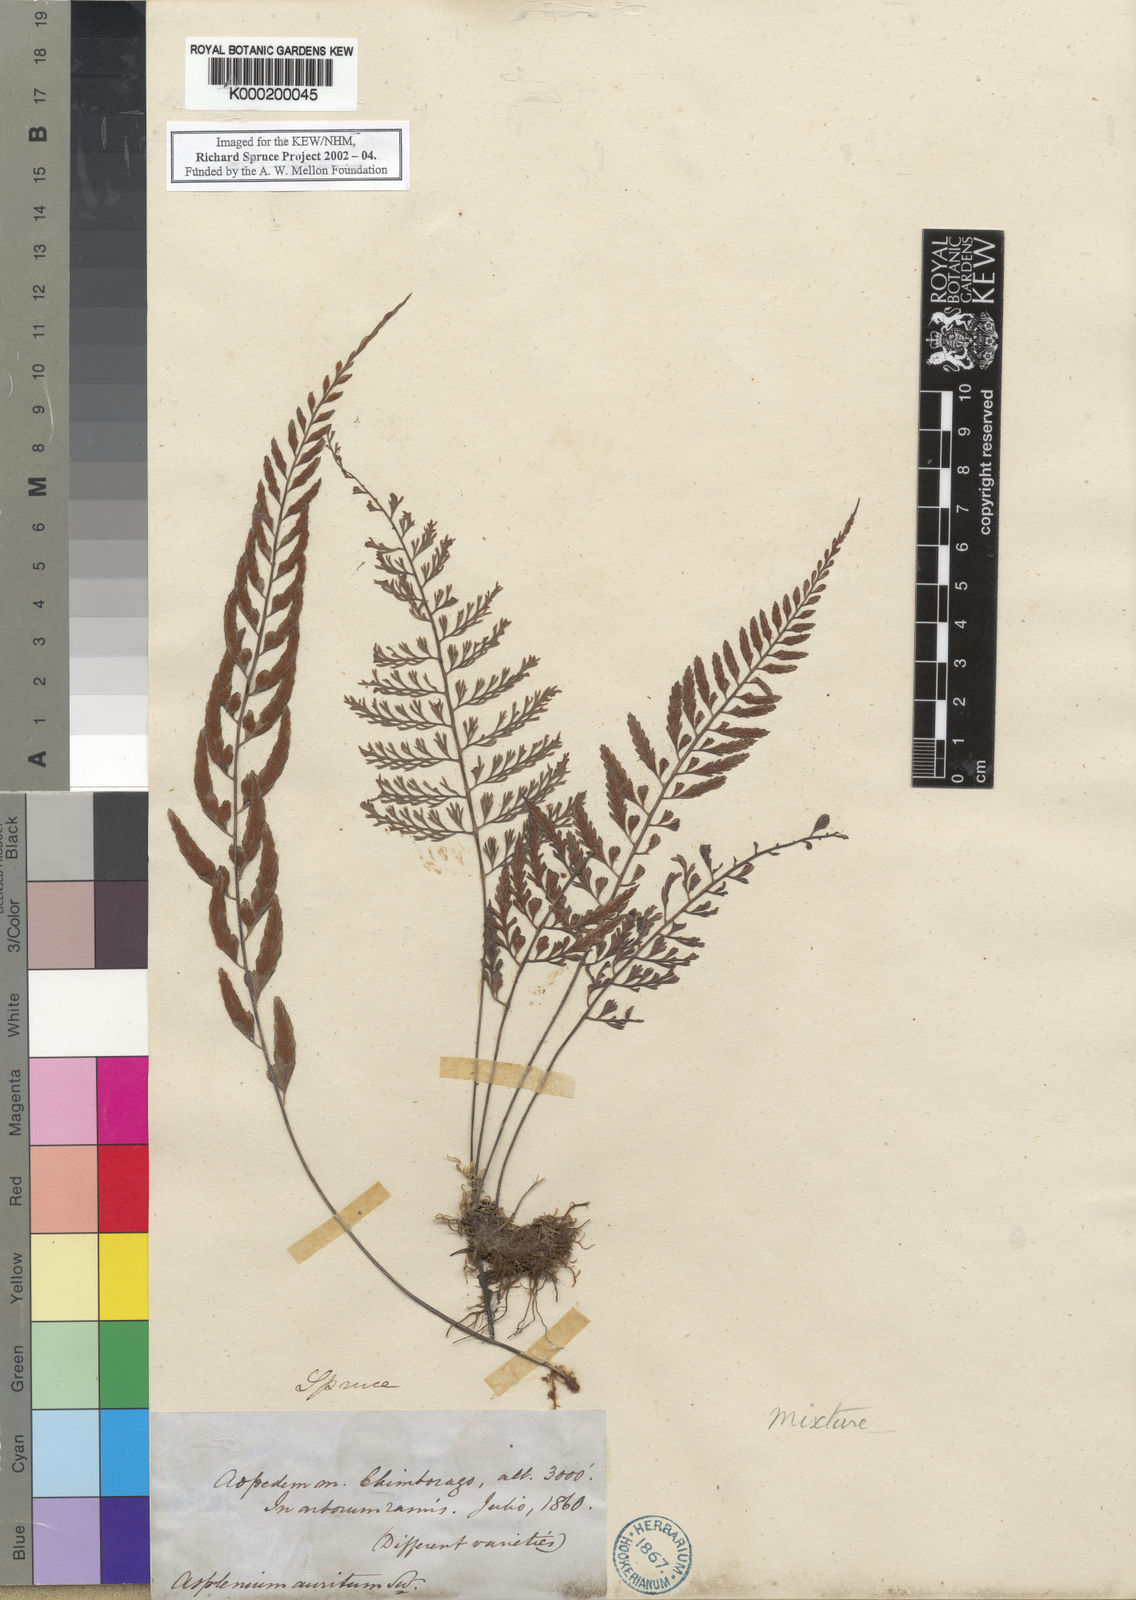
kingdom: Plantae
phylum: Tracheophyta
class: Polypodiopsida
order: Polypodiales
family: Aspleniaceae
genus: Asplenium
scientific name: Asplenium
